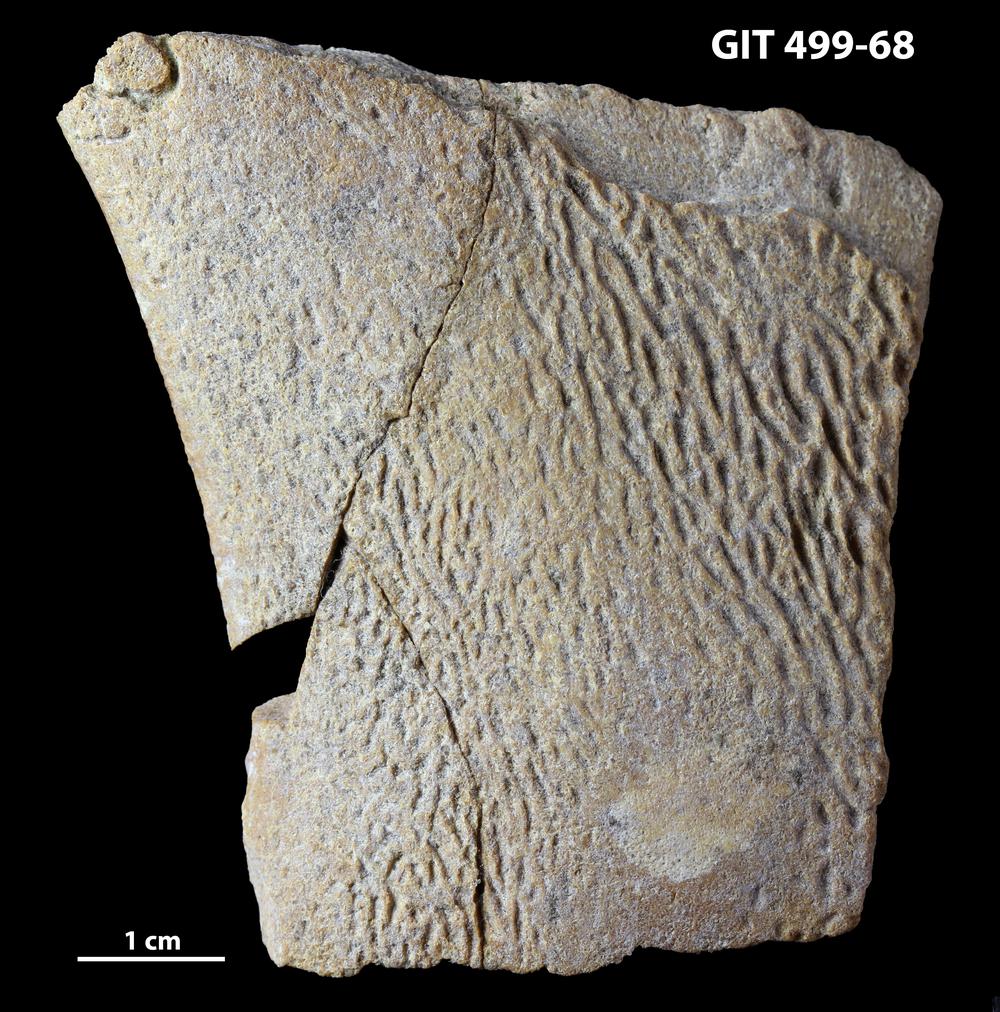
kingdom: Animalia
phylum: Chordata
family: Holoptychiidae
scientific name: Holoptychiidae
